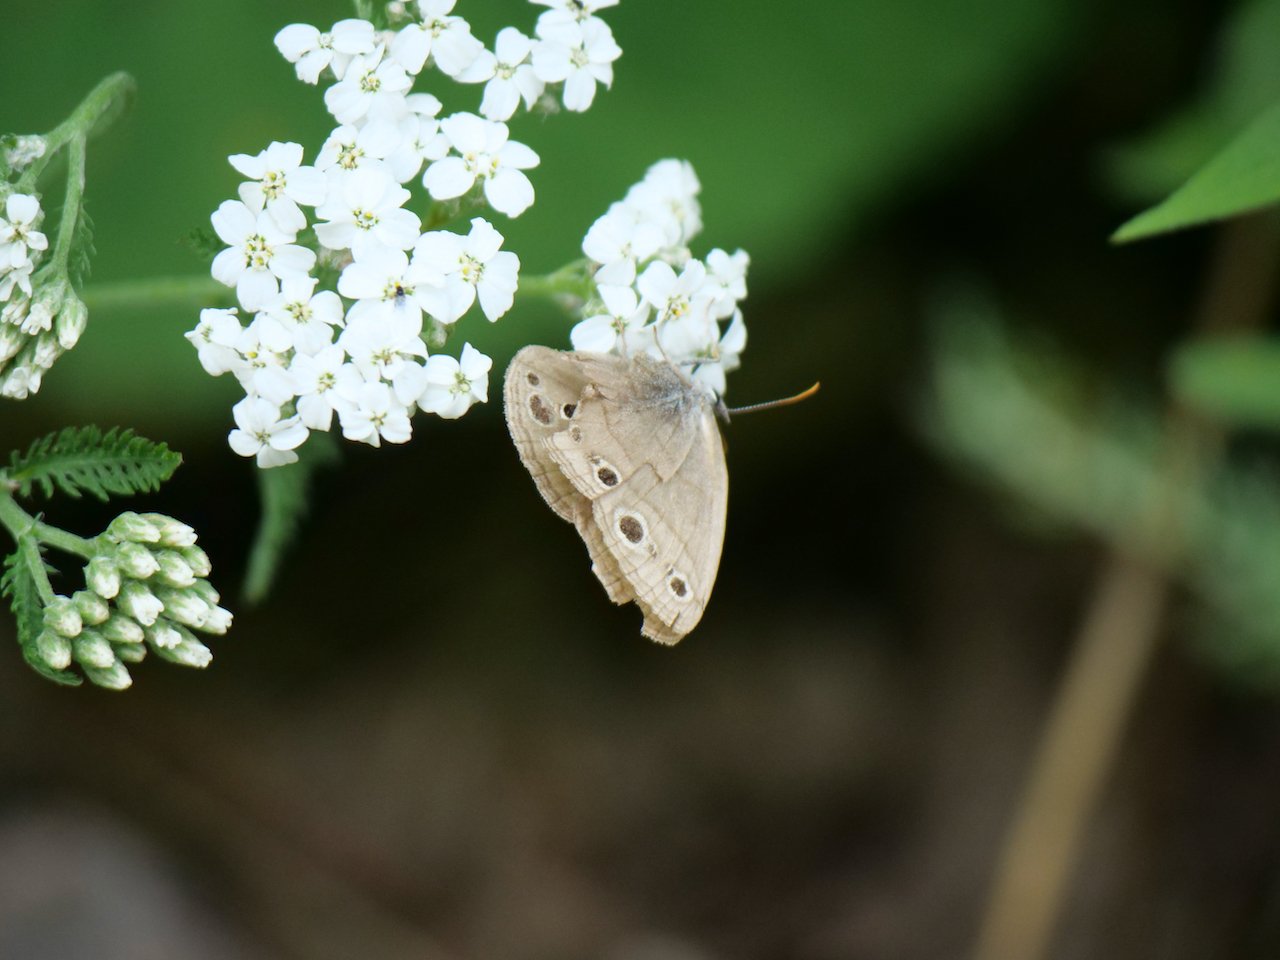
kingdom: Animalia
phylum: Arthropoda
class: Insecta
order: Lepidoptera
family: Nymphalidae
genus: Euptychia
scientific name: Euptychia cymela
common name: Little Wood Satyr
